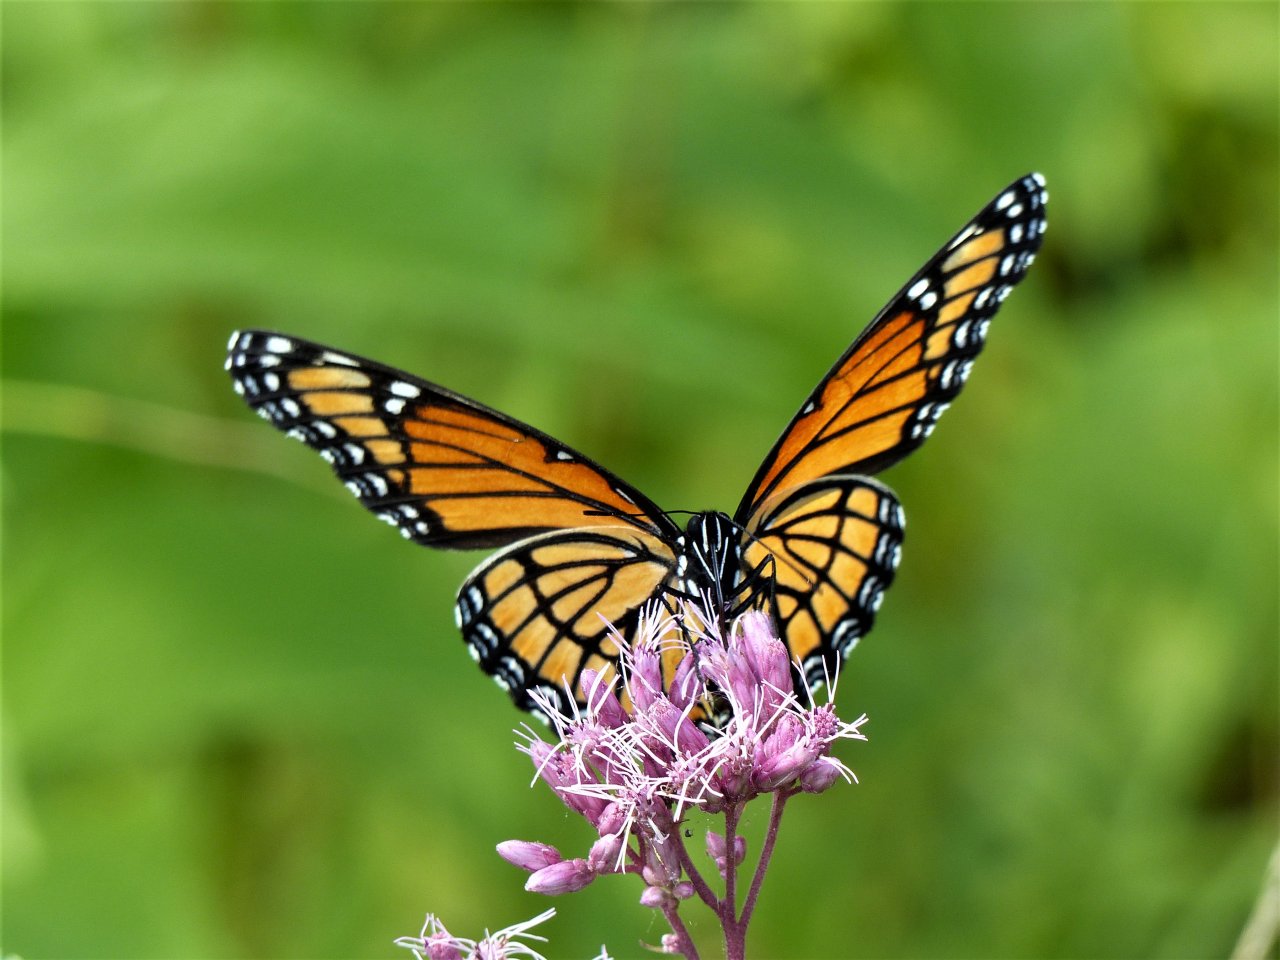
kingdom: Animalia
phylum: Arthropoda
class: Insecta
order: Lepidoptera
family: Nymphalidae
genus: Limenitis
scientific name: Limenitis archippus
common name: Viceroy
